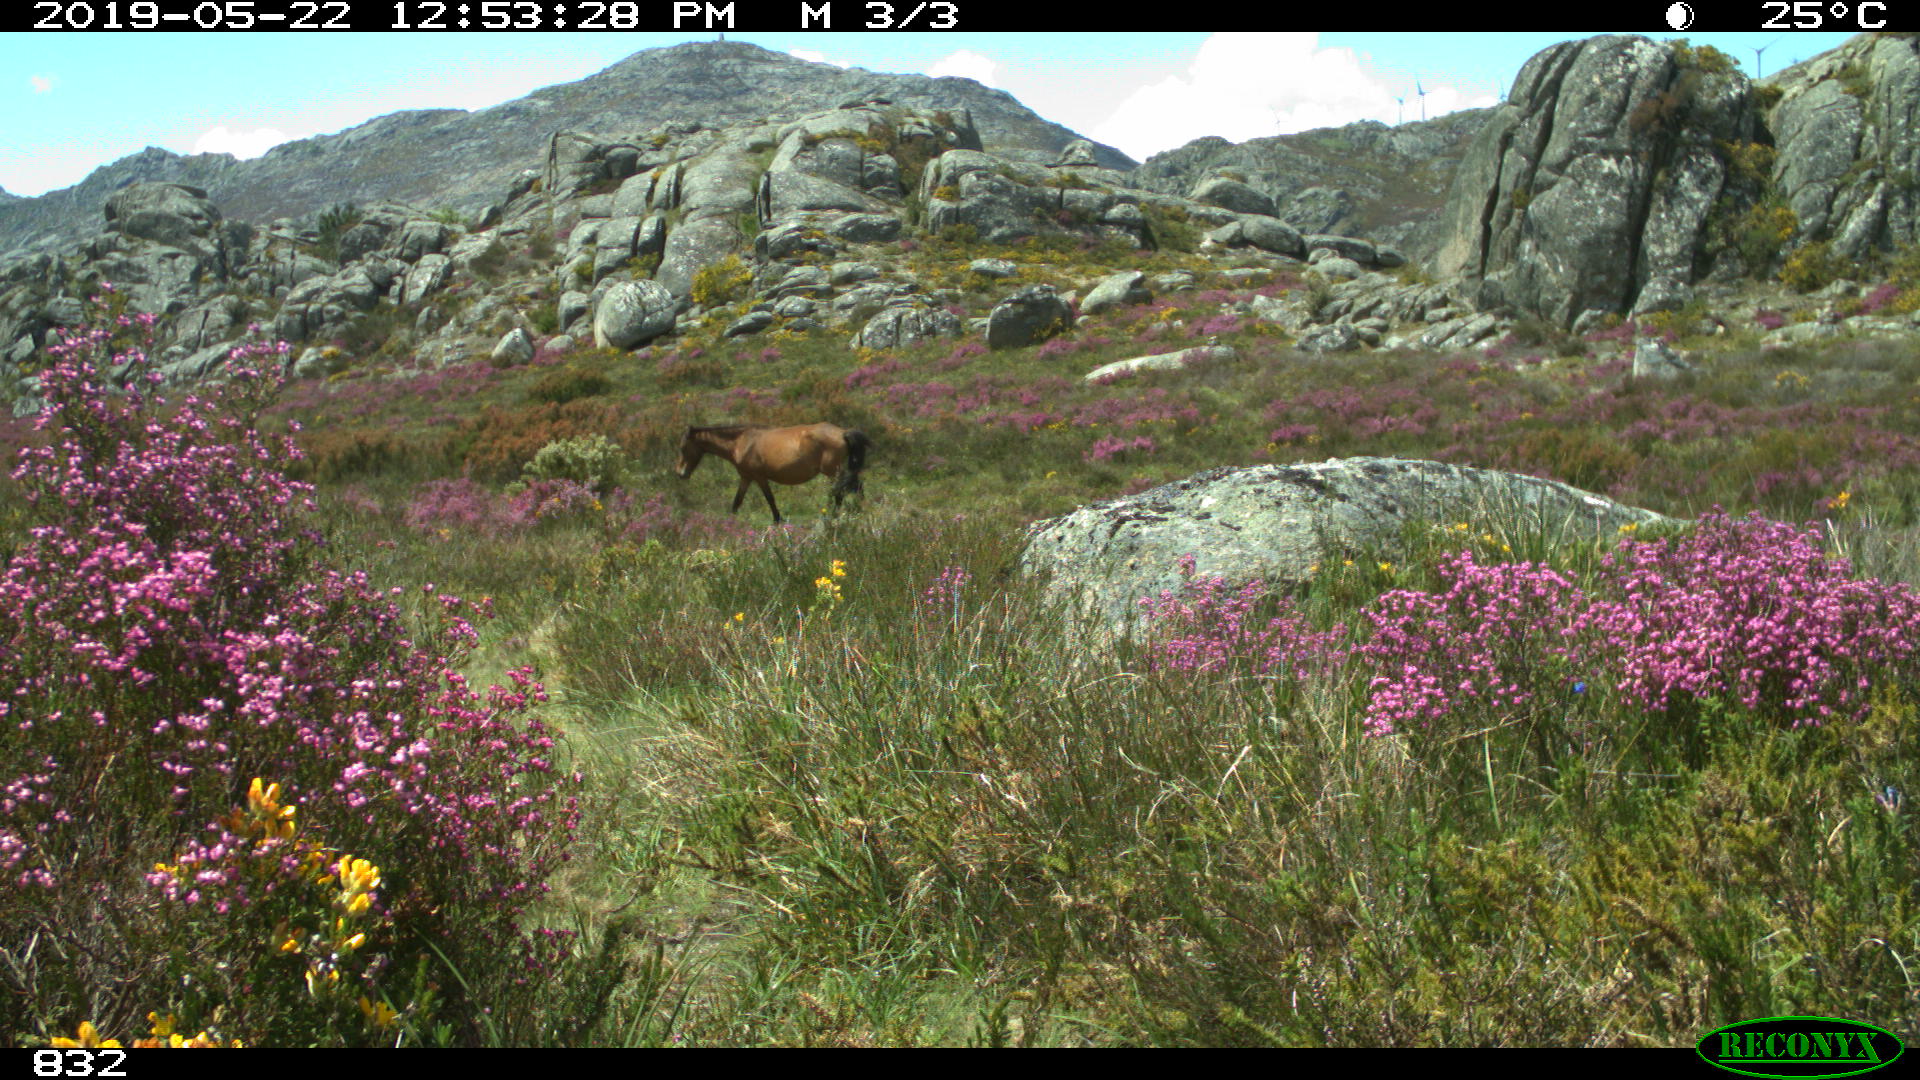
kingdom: Animalia
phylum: Chordata
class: Mammalia
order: Perissodactyla
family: Equidae
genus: Equus
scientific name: Equus caballus
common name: Horse
